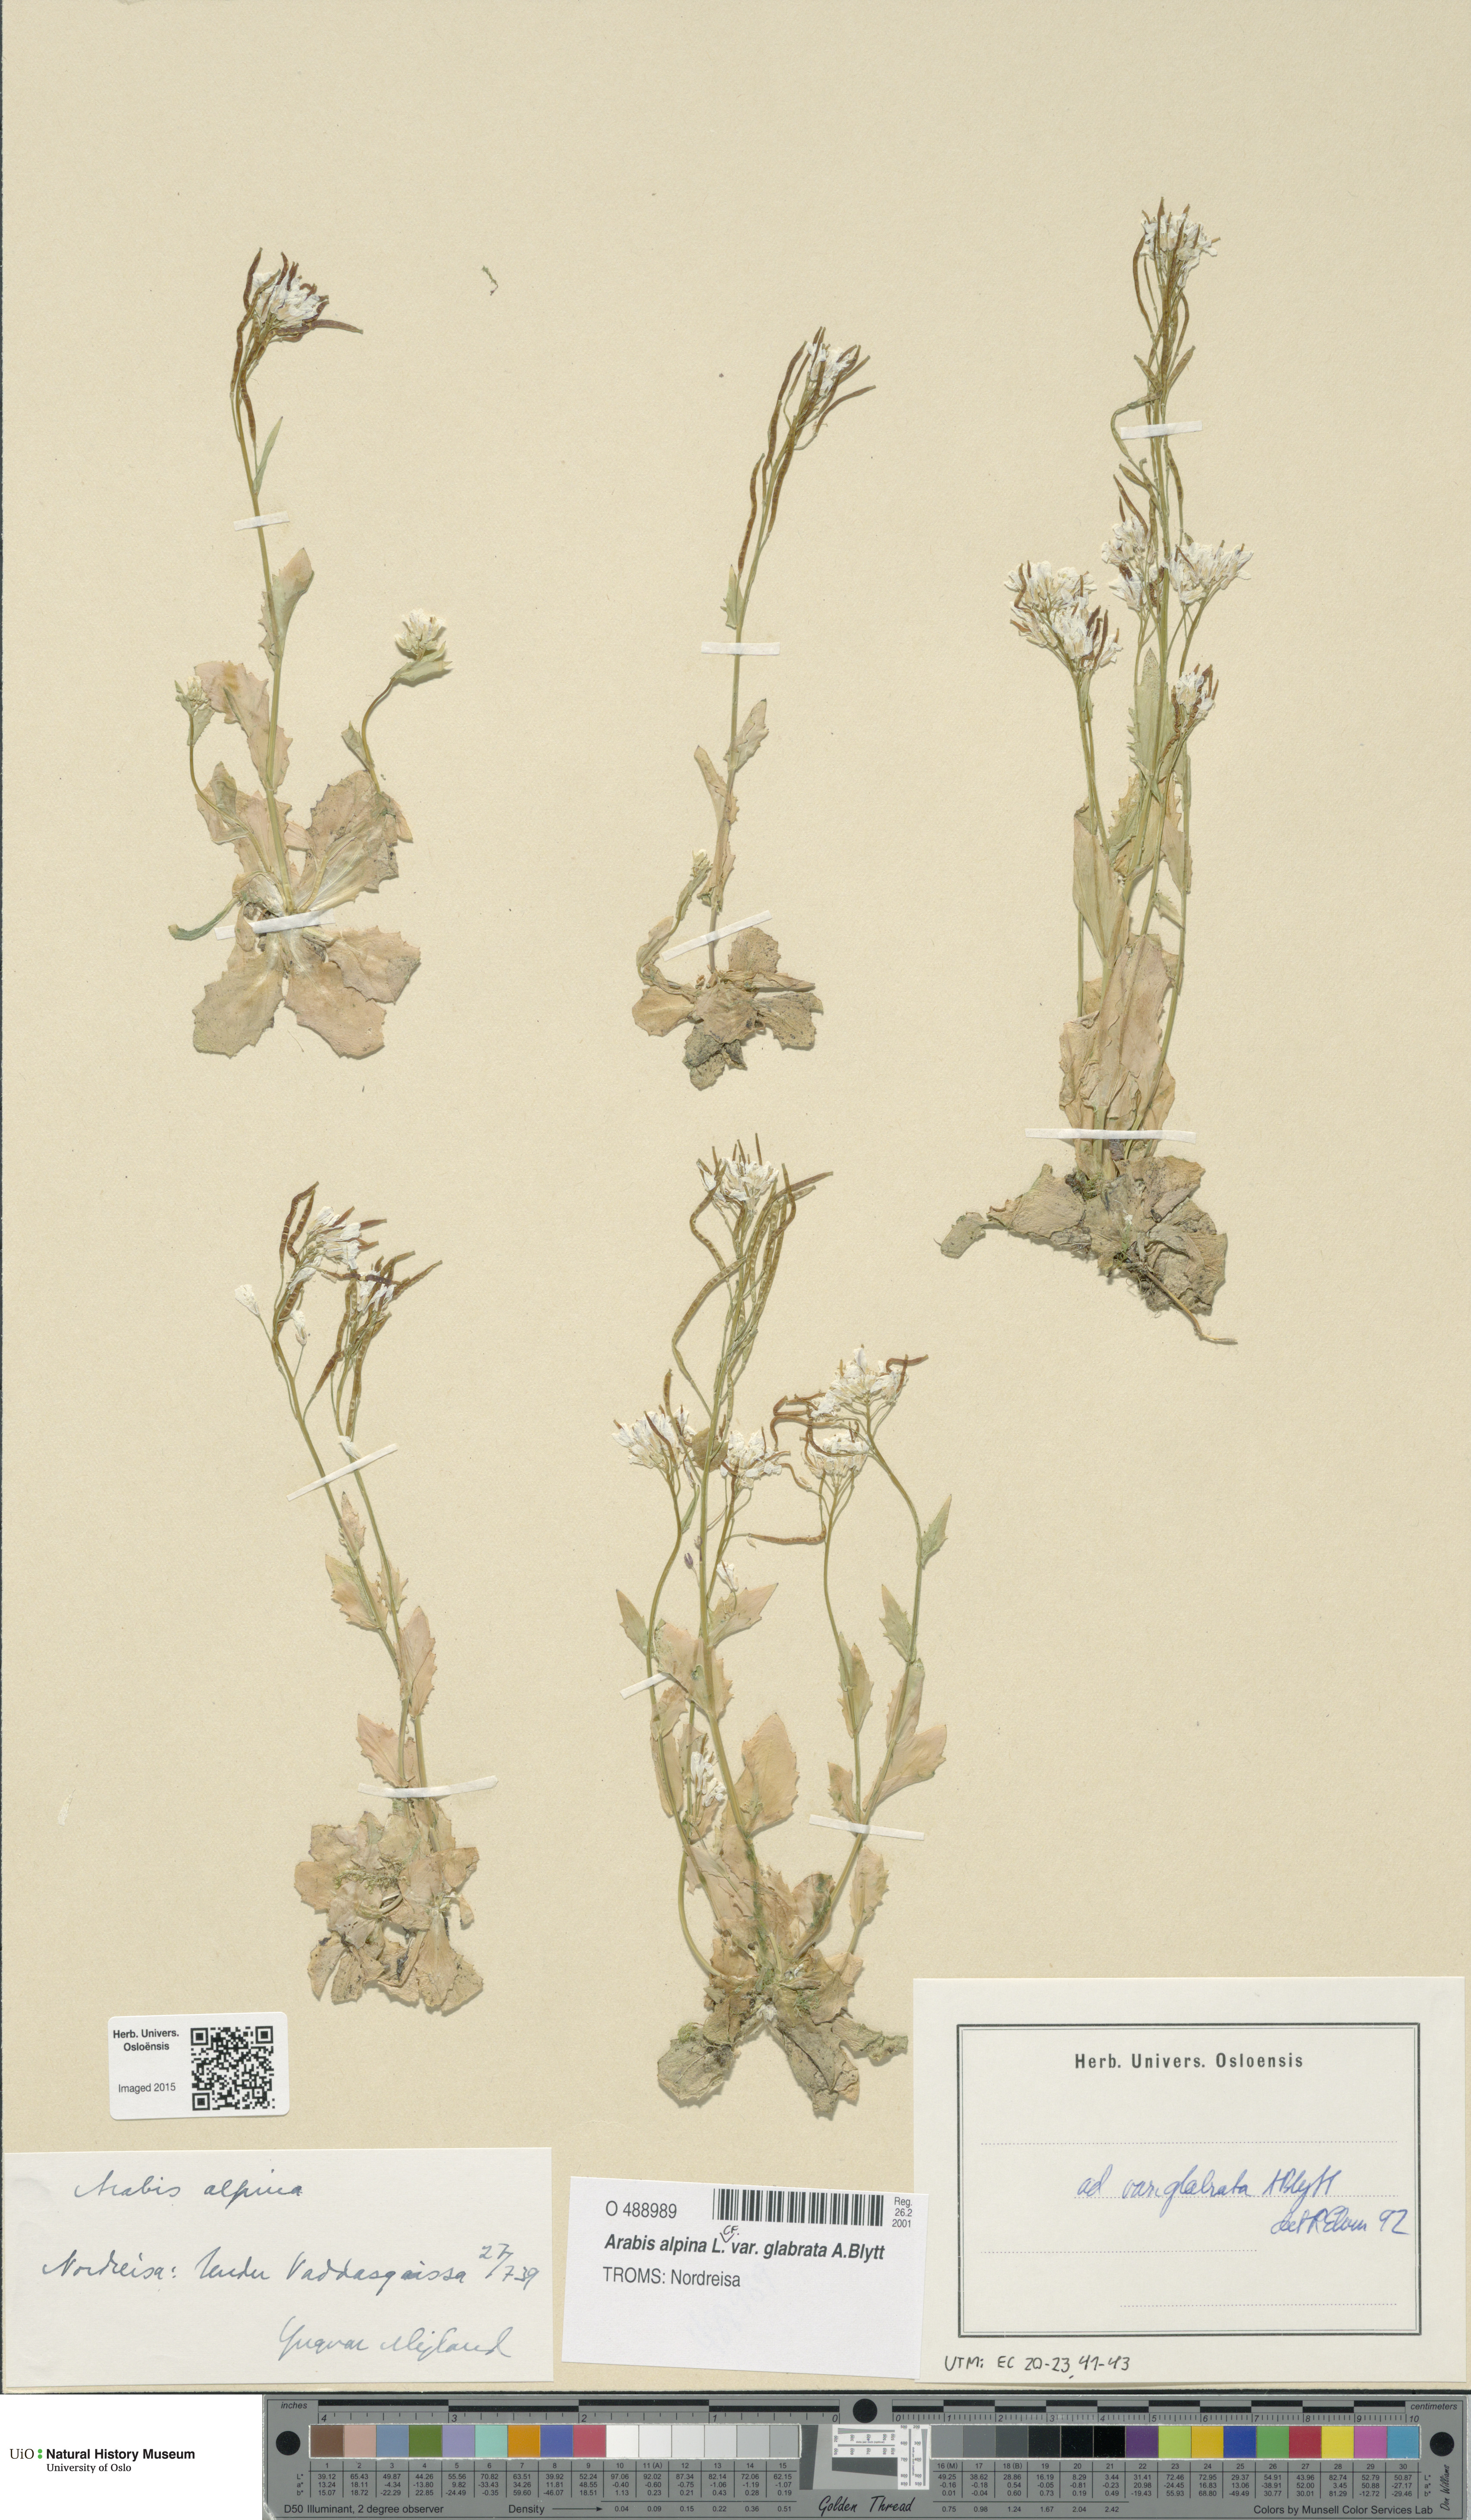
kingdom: Plantae
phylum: Tracheophyta
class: Magnoliopsida
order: Brassicales
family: Brassicaceae
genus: Arabis
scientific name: Arabis alpina
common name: Alpine rock-cress
